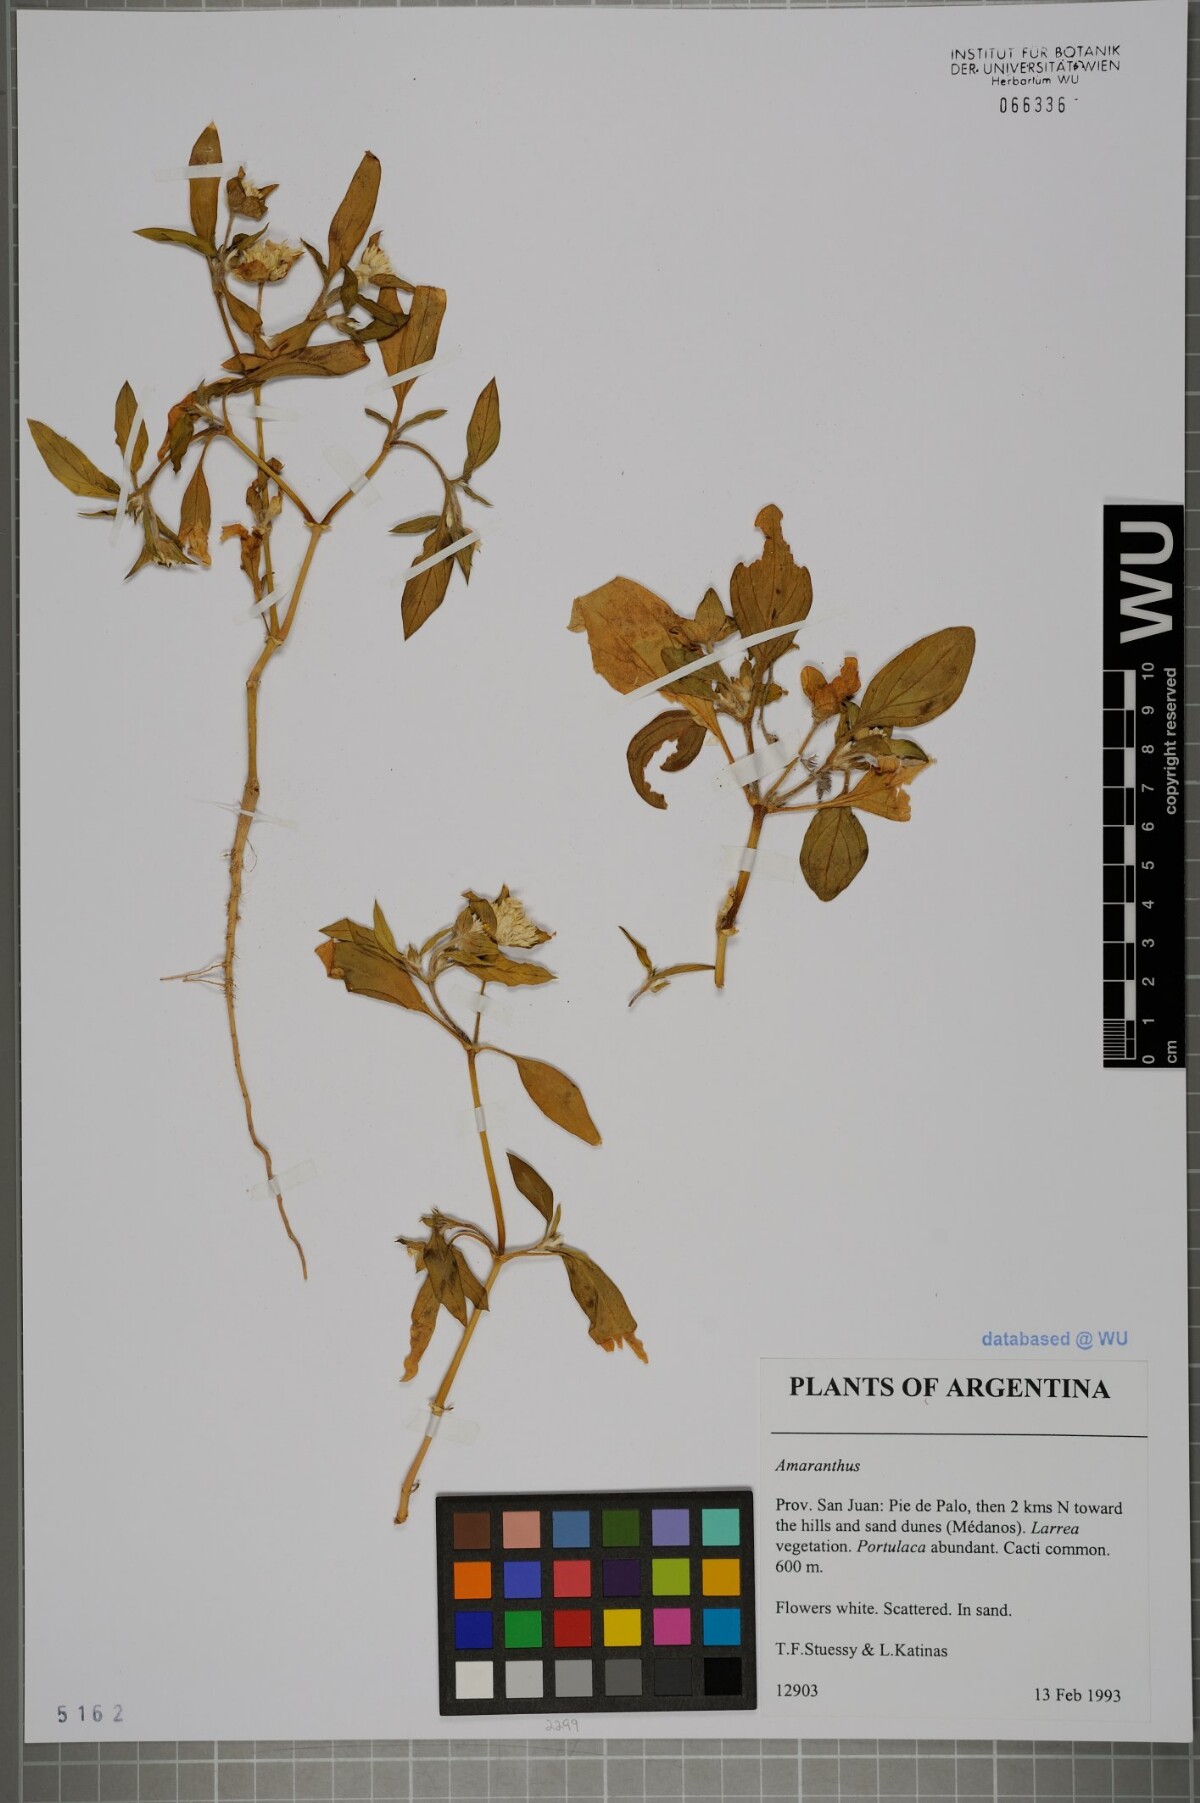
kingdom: Plantae
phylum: Tracheophyta
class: Magnoliopsida
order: Caryophyllales
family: Amaranthaceae
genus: Amaranthus
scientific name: Amaranthus
